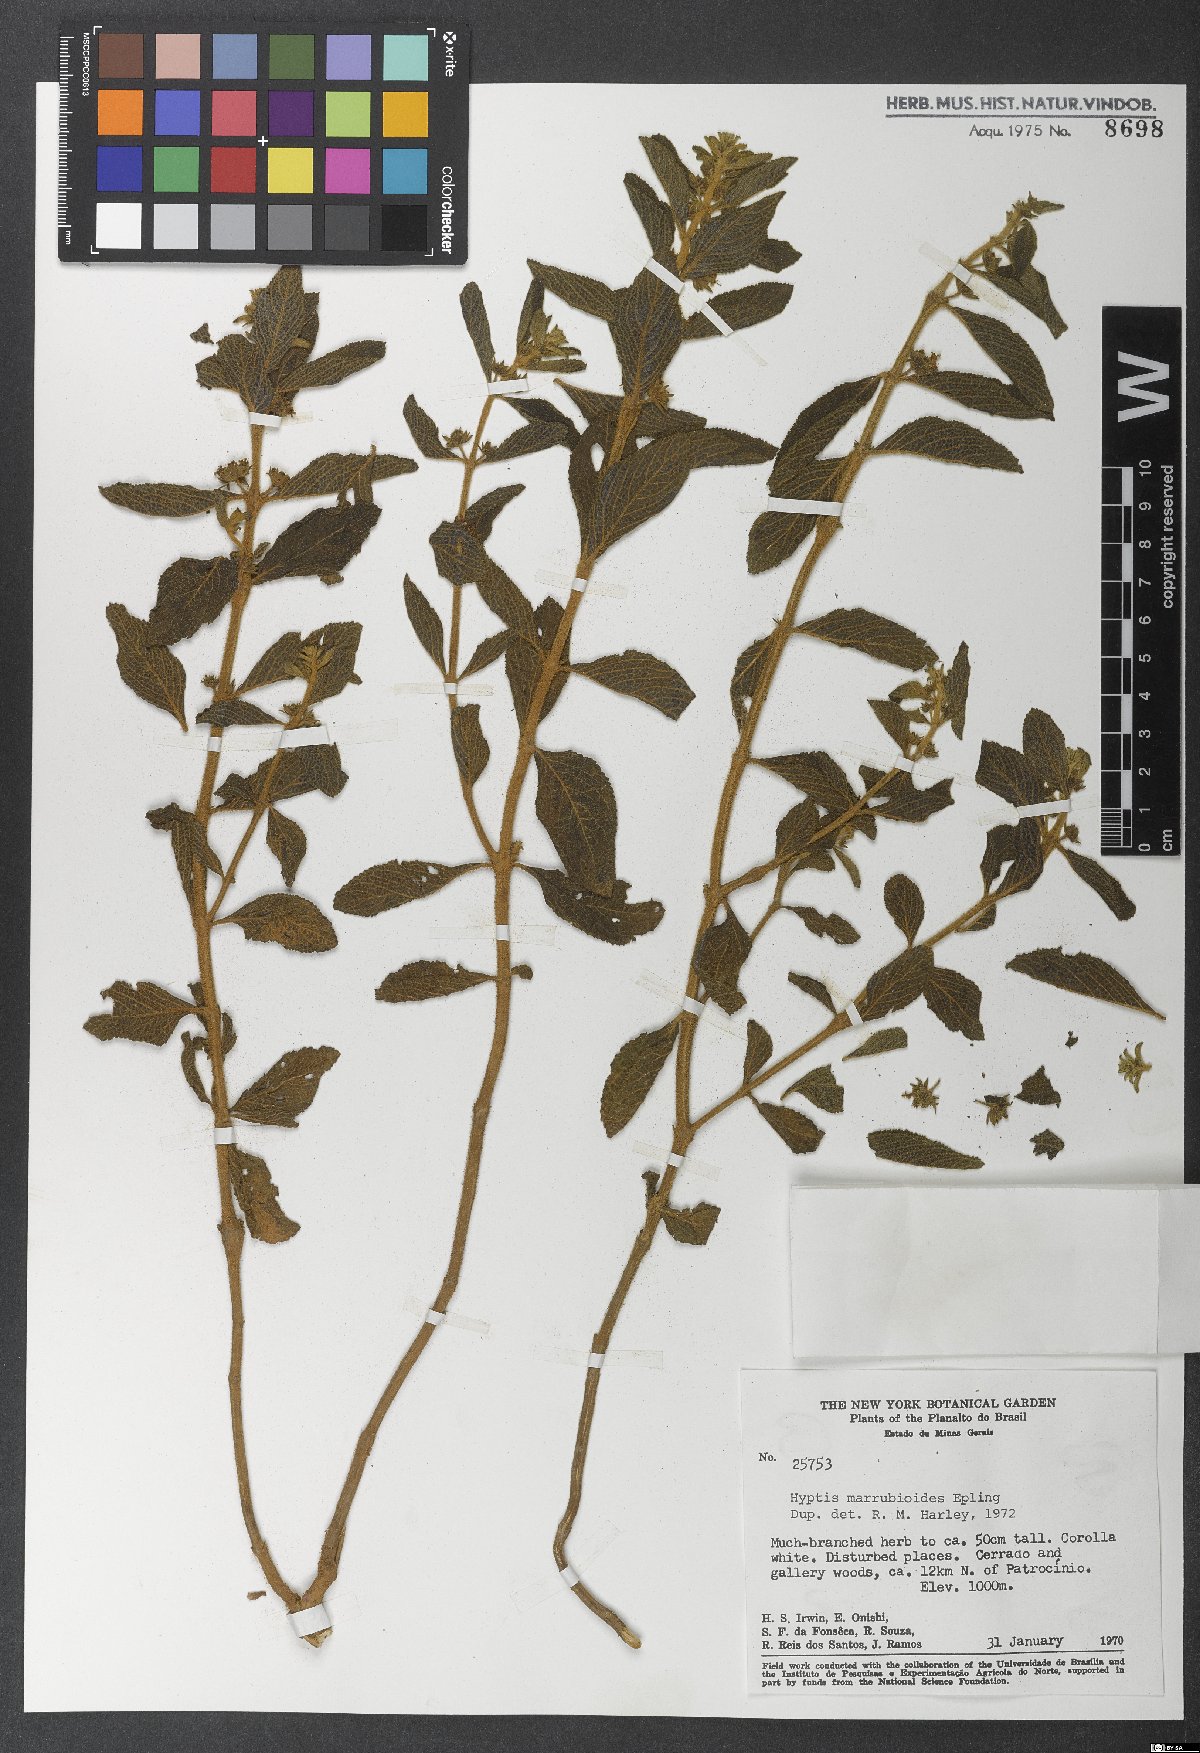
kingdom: Plantae
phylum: Tracheophyta
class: Magnoliopsida
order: Lamiales
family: Lamiaceae
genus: Hyptis
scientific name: Hyptis marrubioides
